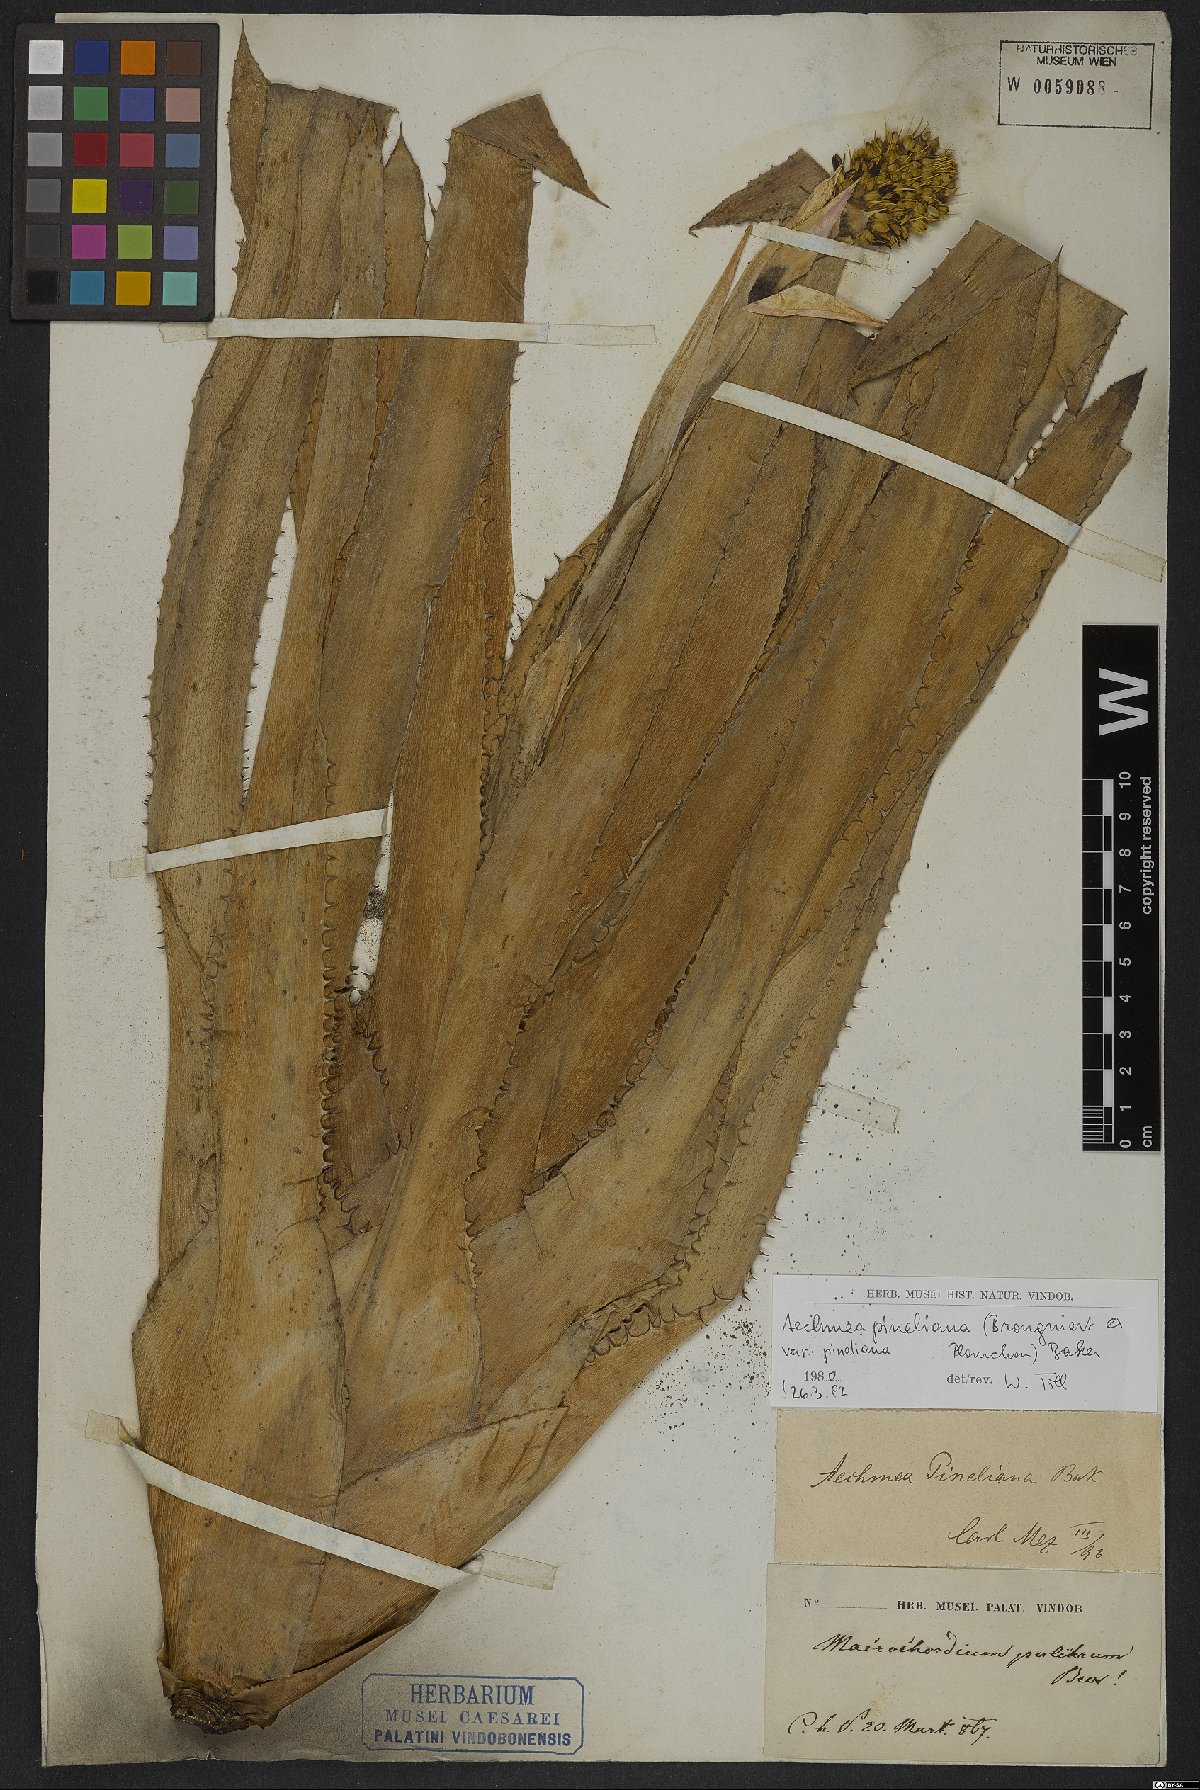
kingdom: Plantae
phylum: Tracheophyta
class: Liliopsida
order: Poales
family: Bromeliaceae
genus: Aechmea
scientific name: Aechmea pineliana
